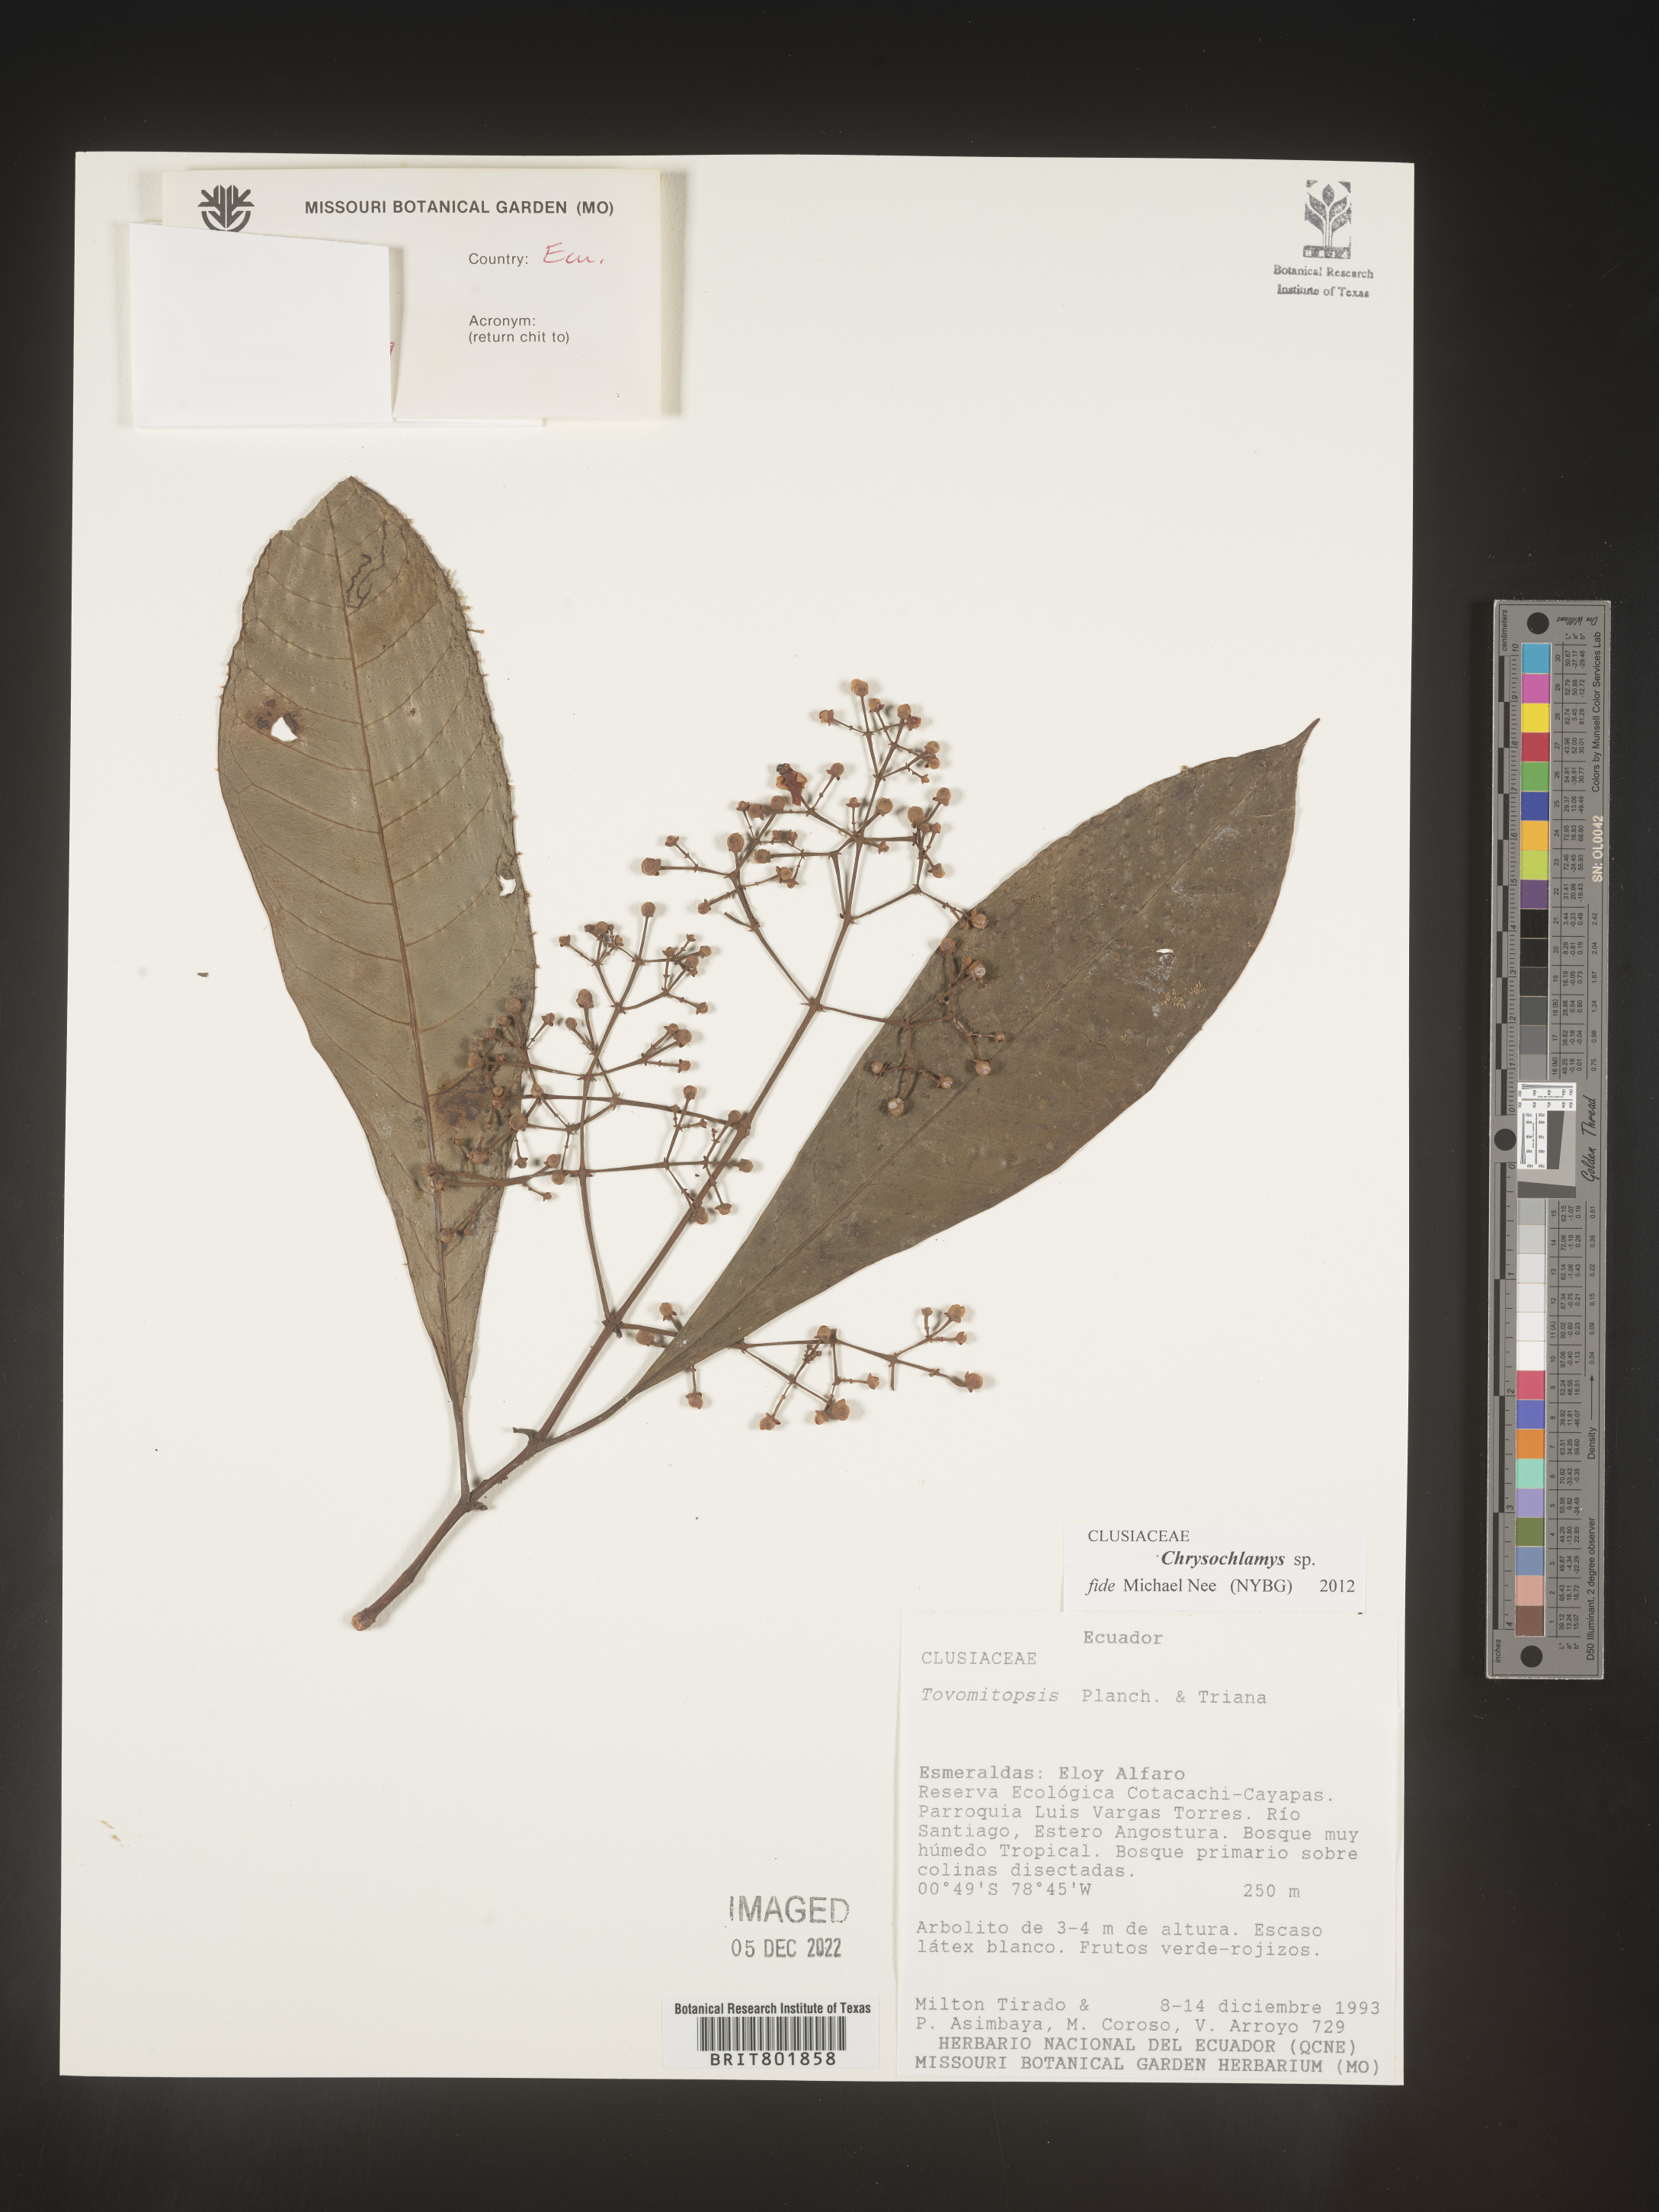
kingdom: Plantae
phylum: Tracheophyta
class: Magnoliopsida
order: Malpighiales
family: Clusiaceae
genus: Chrysochlamys
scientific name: Chrysochlamys
